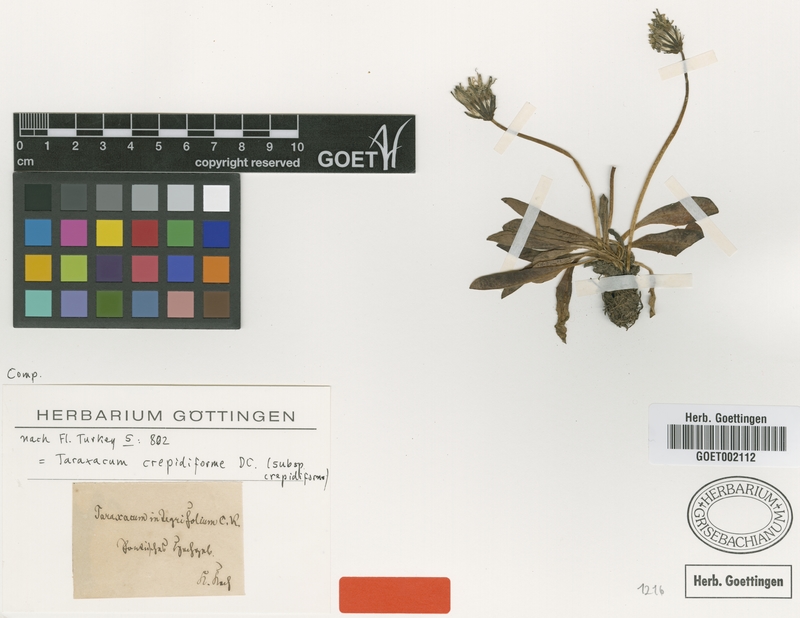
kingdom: Plantae
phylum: Tracheophyta
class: Magnoliopsida
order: Asterales
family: Asteraceae
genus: Taraxacum
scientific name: Taraxacum stevenii
